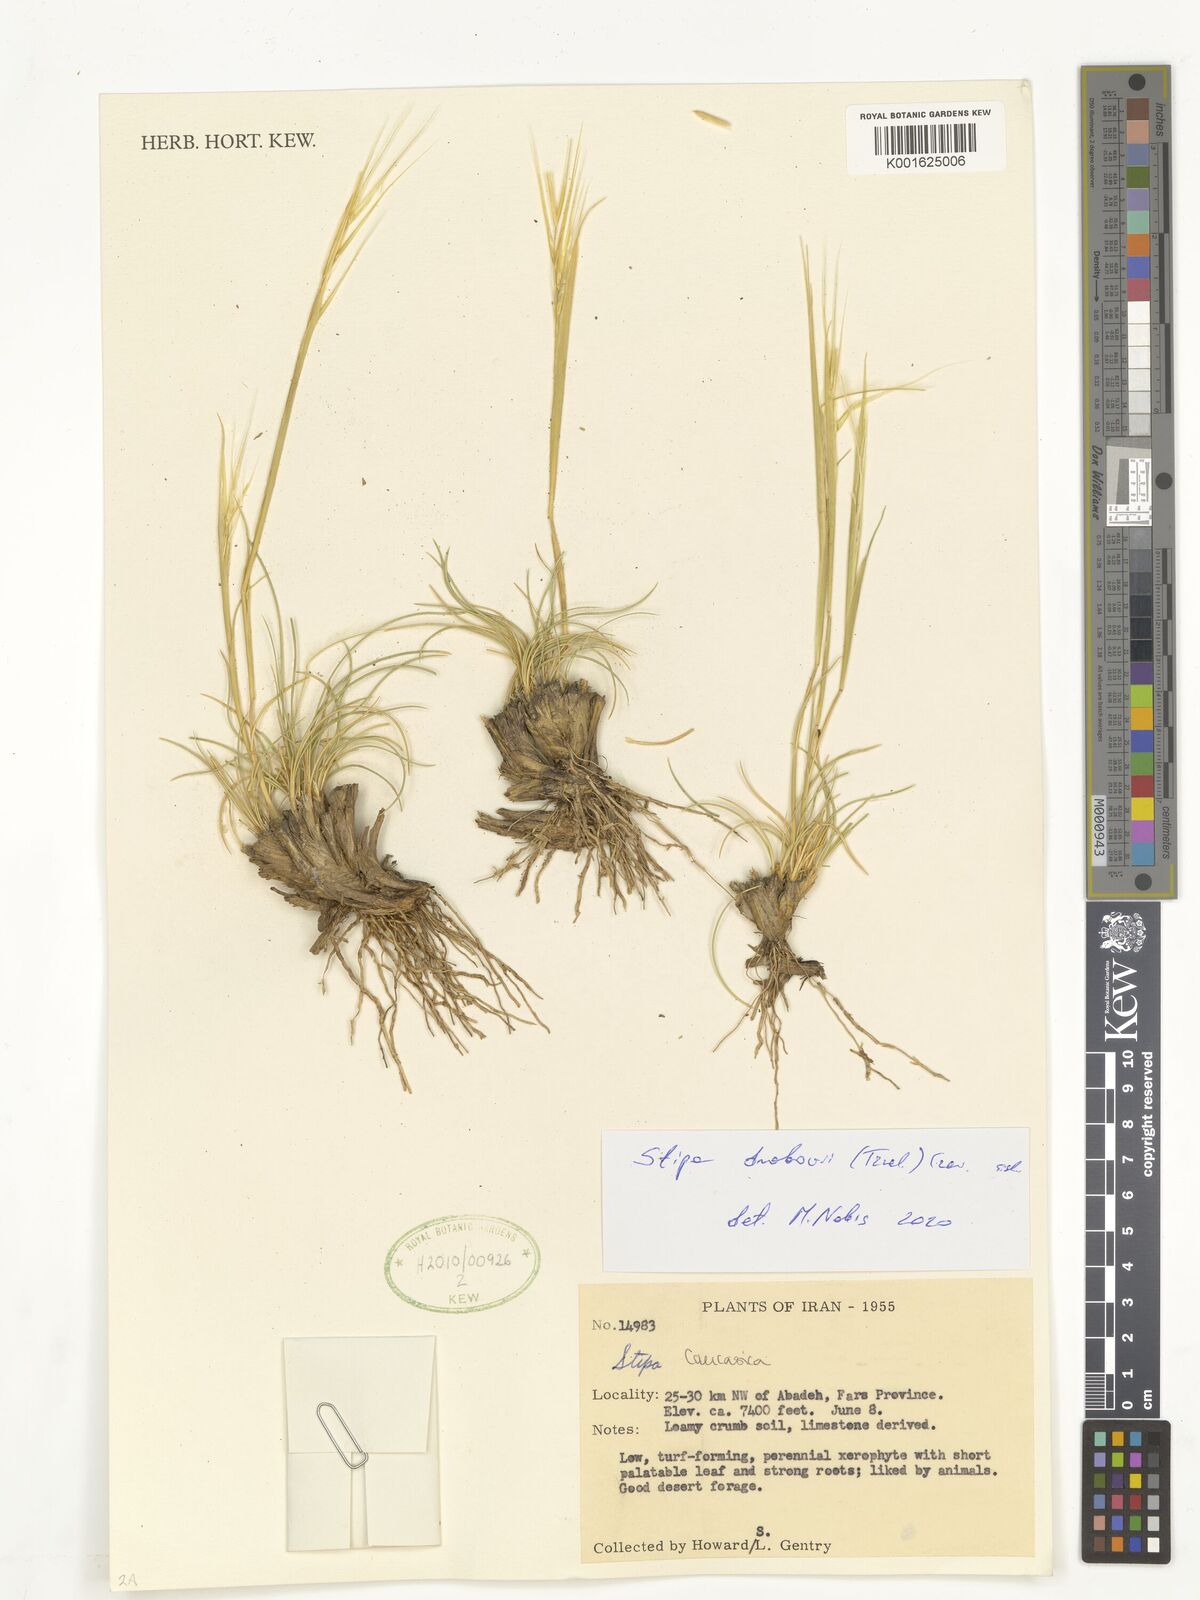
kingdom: Plantae
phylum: Tracheophyta
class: Liliopsida
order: Poales
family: Poaceae
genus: Stipa
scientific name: Stipa drobovii
